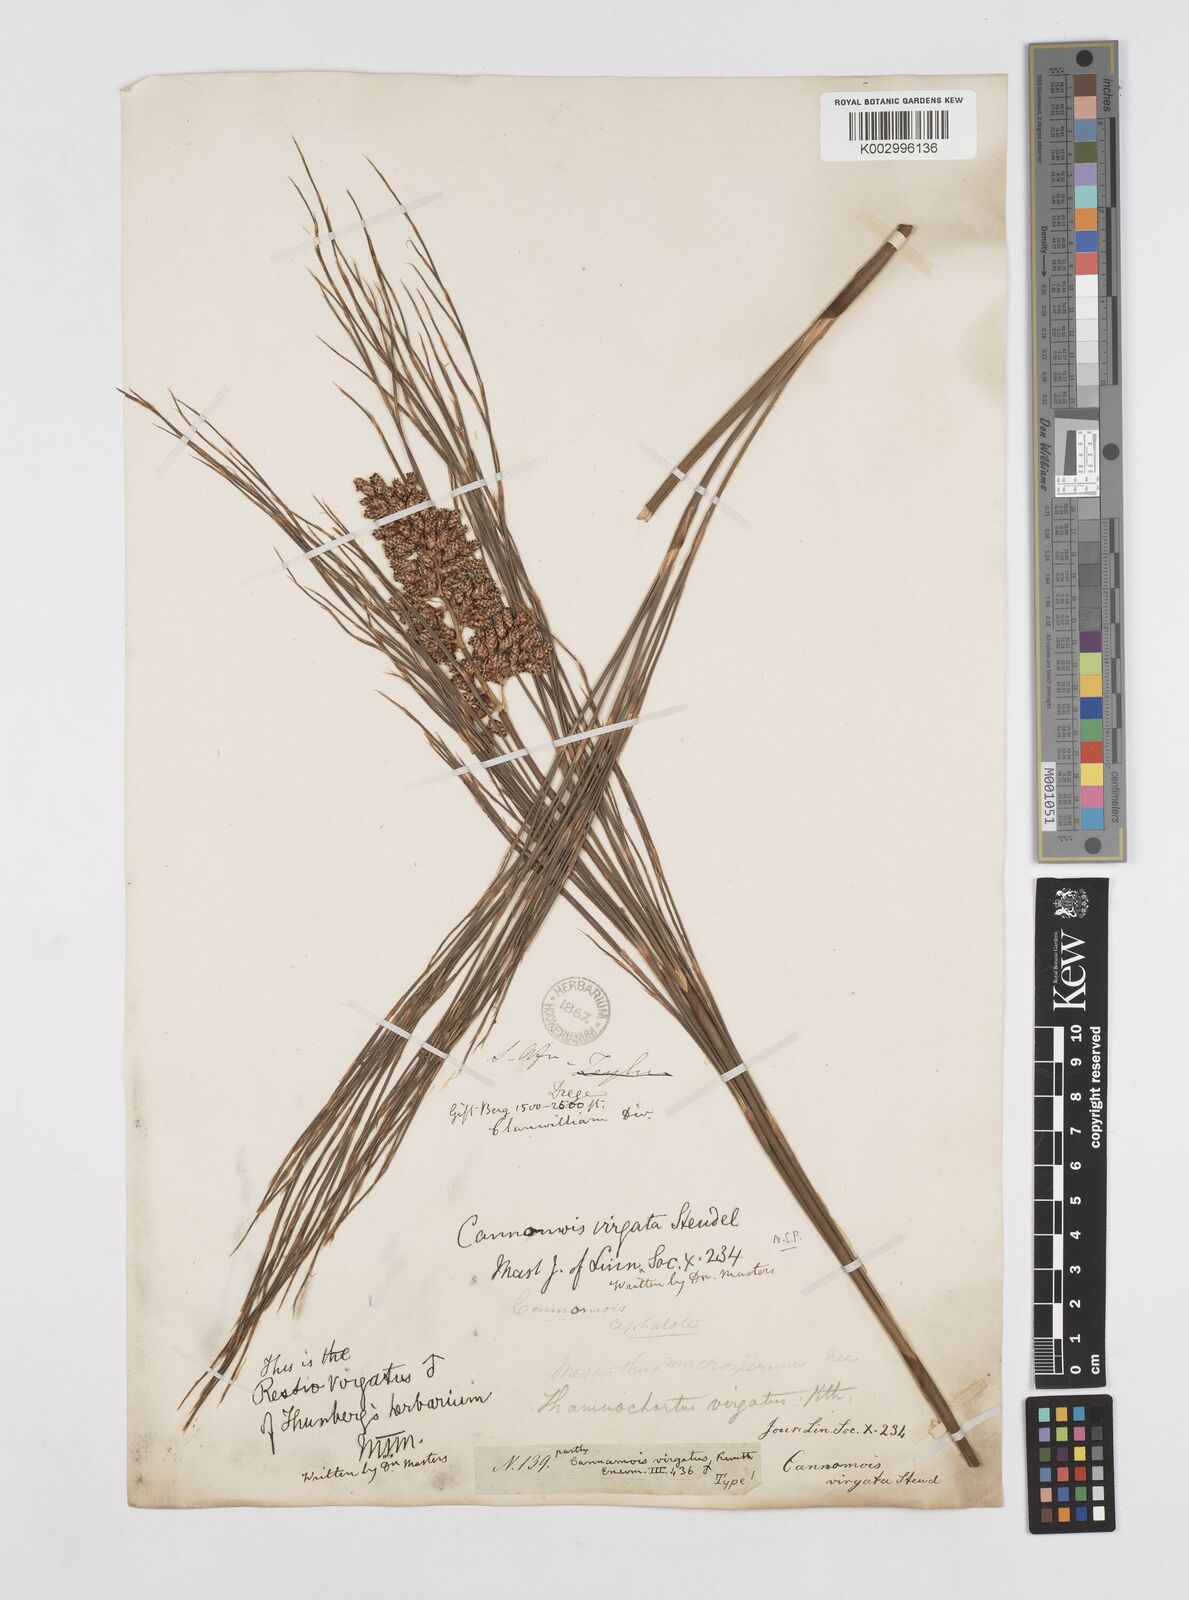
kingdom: Plantae
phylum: Tracheophyta
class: Liliopsida
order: Poales
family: Restionaceae
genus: Cannomois
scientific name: Cannomois virgata
